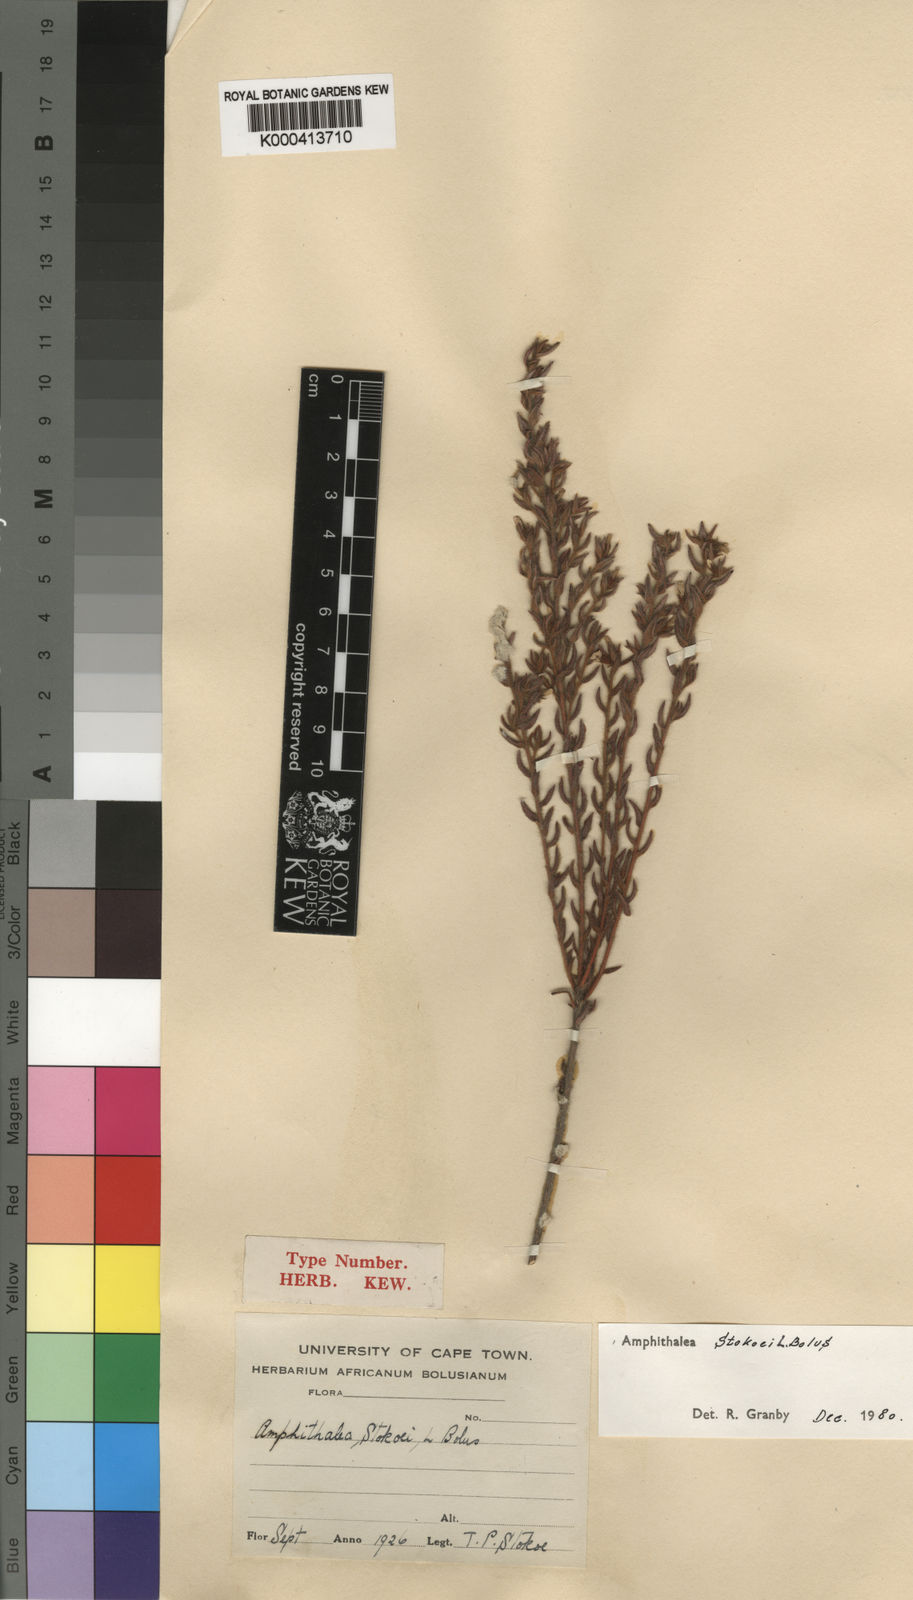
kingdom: Plantae
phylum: Tracheophyta
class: Magnoliopsida
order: Fabales
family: Fabaceae
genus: Amphithalea
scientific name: Amphithalea stokoei
